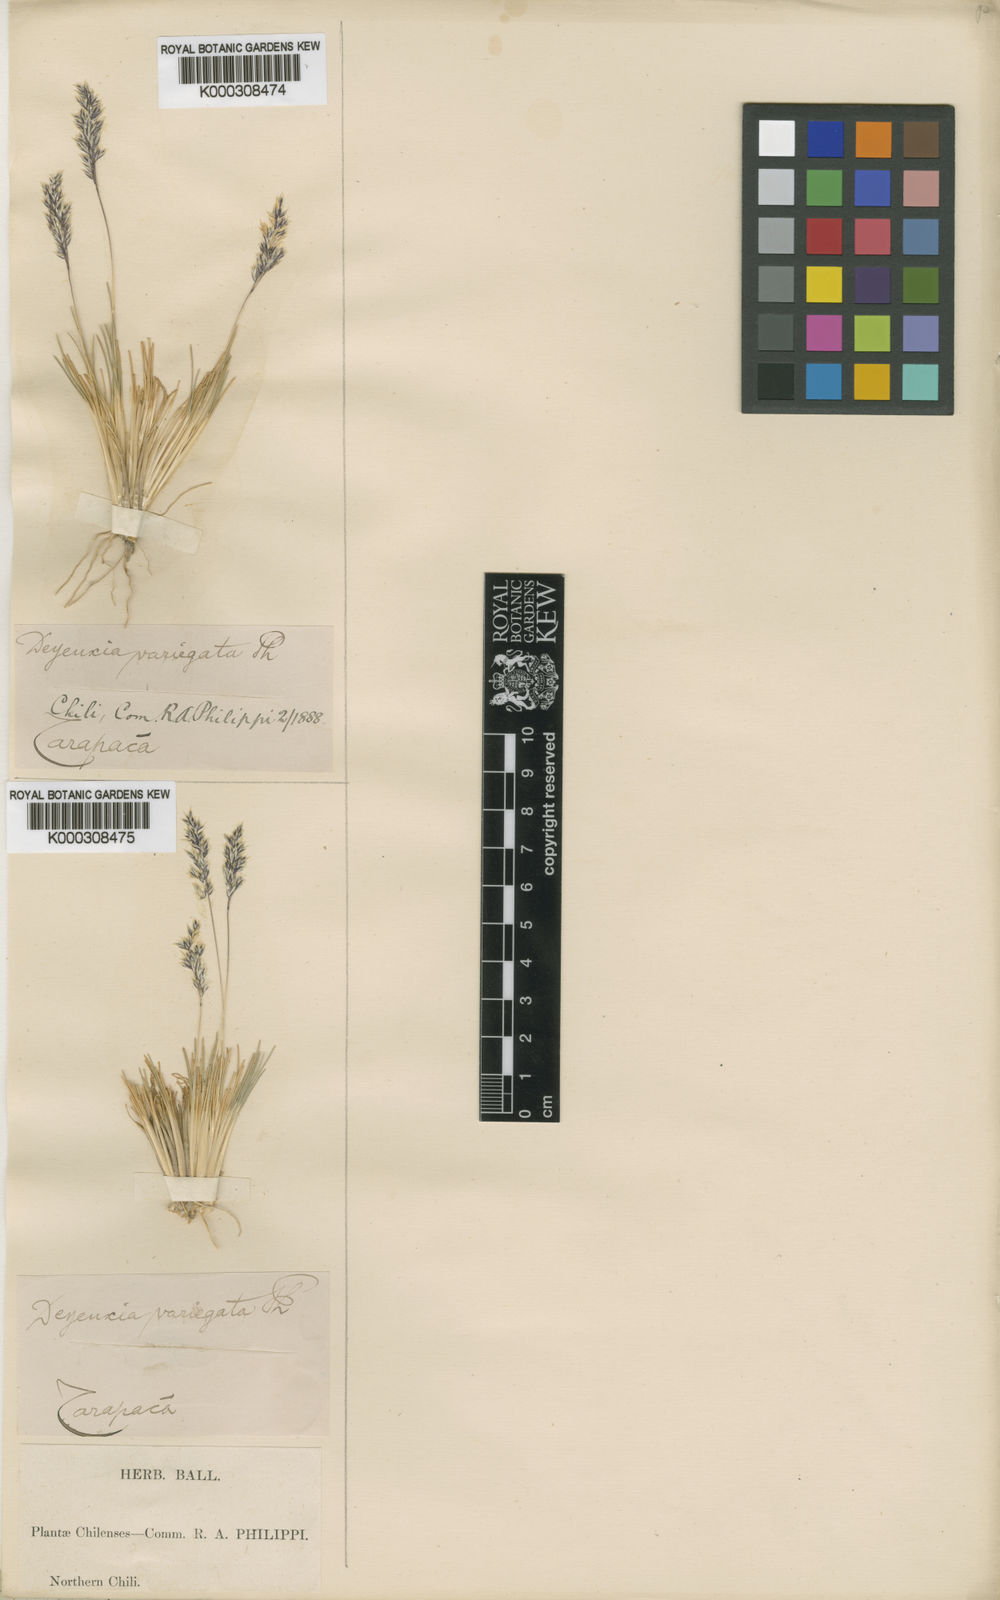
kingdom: Plantae
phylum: Tracheophyta
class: Liliopsida
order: Poales
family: Poaceae
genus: Cinnagrostis
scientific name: Cinnagrostis breviaristata
